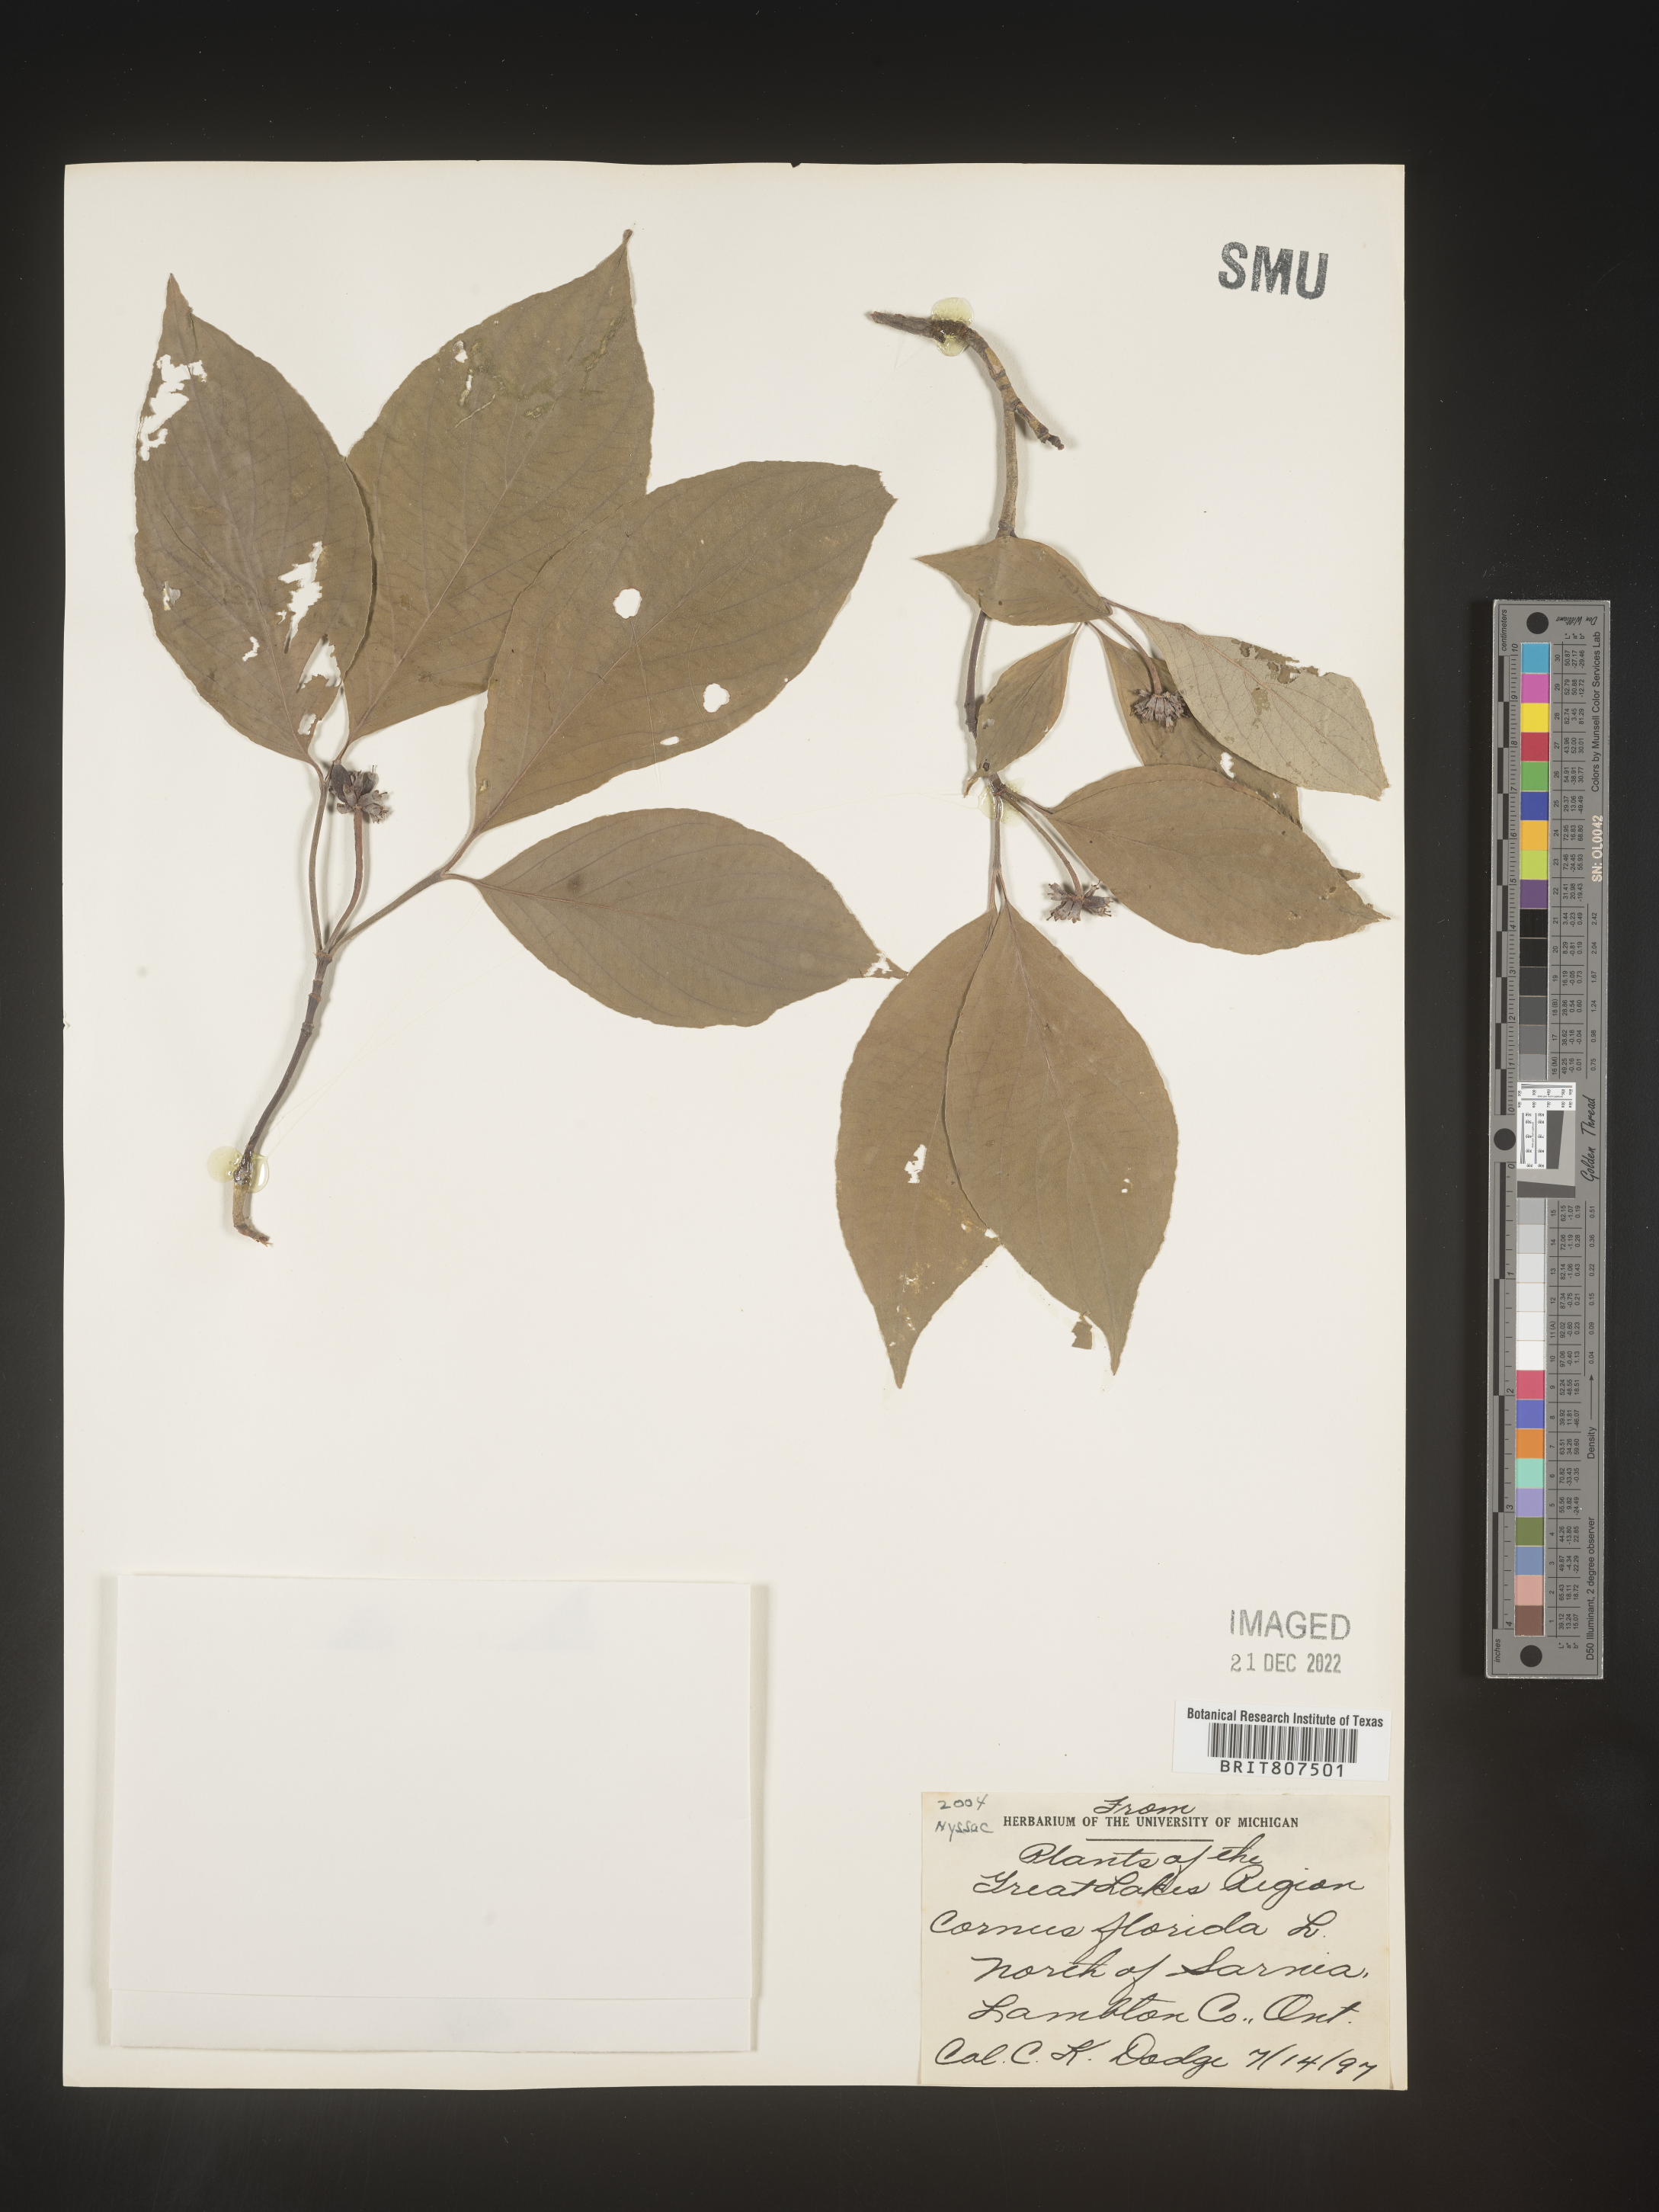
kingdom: Plantae
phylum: Tracheophyta
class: Magnoliopsida
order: Cornales
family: Cornaceae
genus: Cornus
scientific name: Cornus florida
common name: Flowering dogwood
